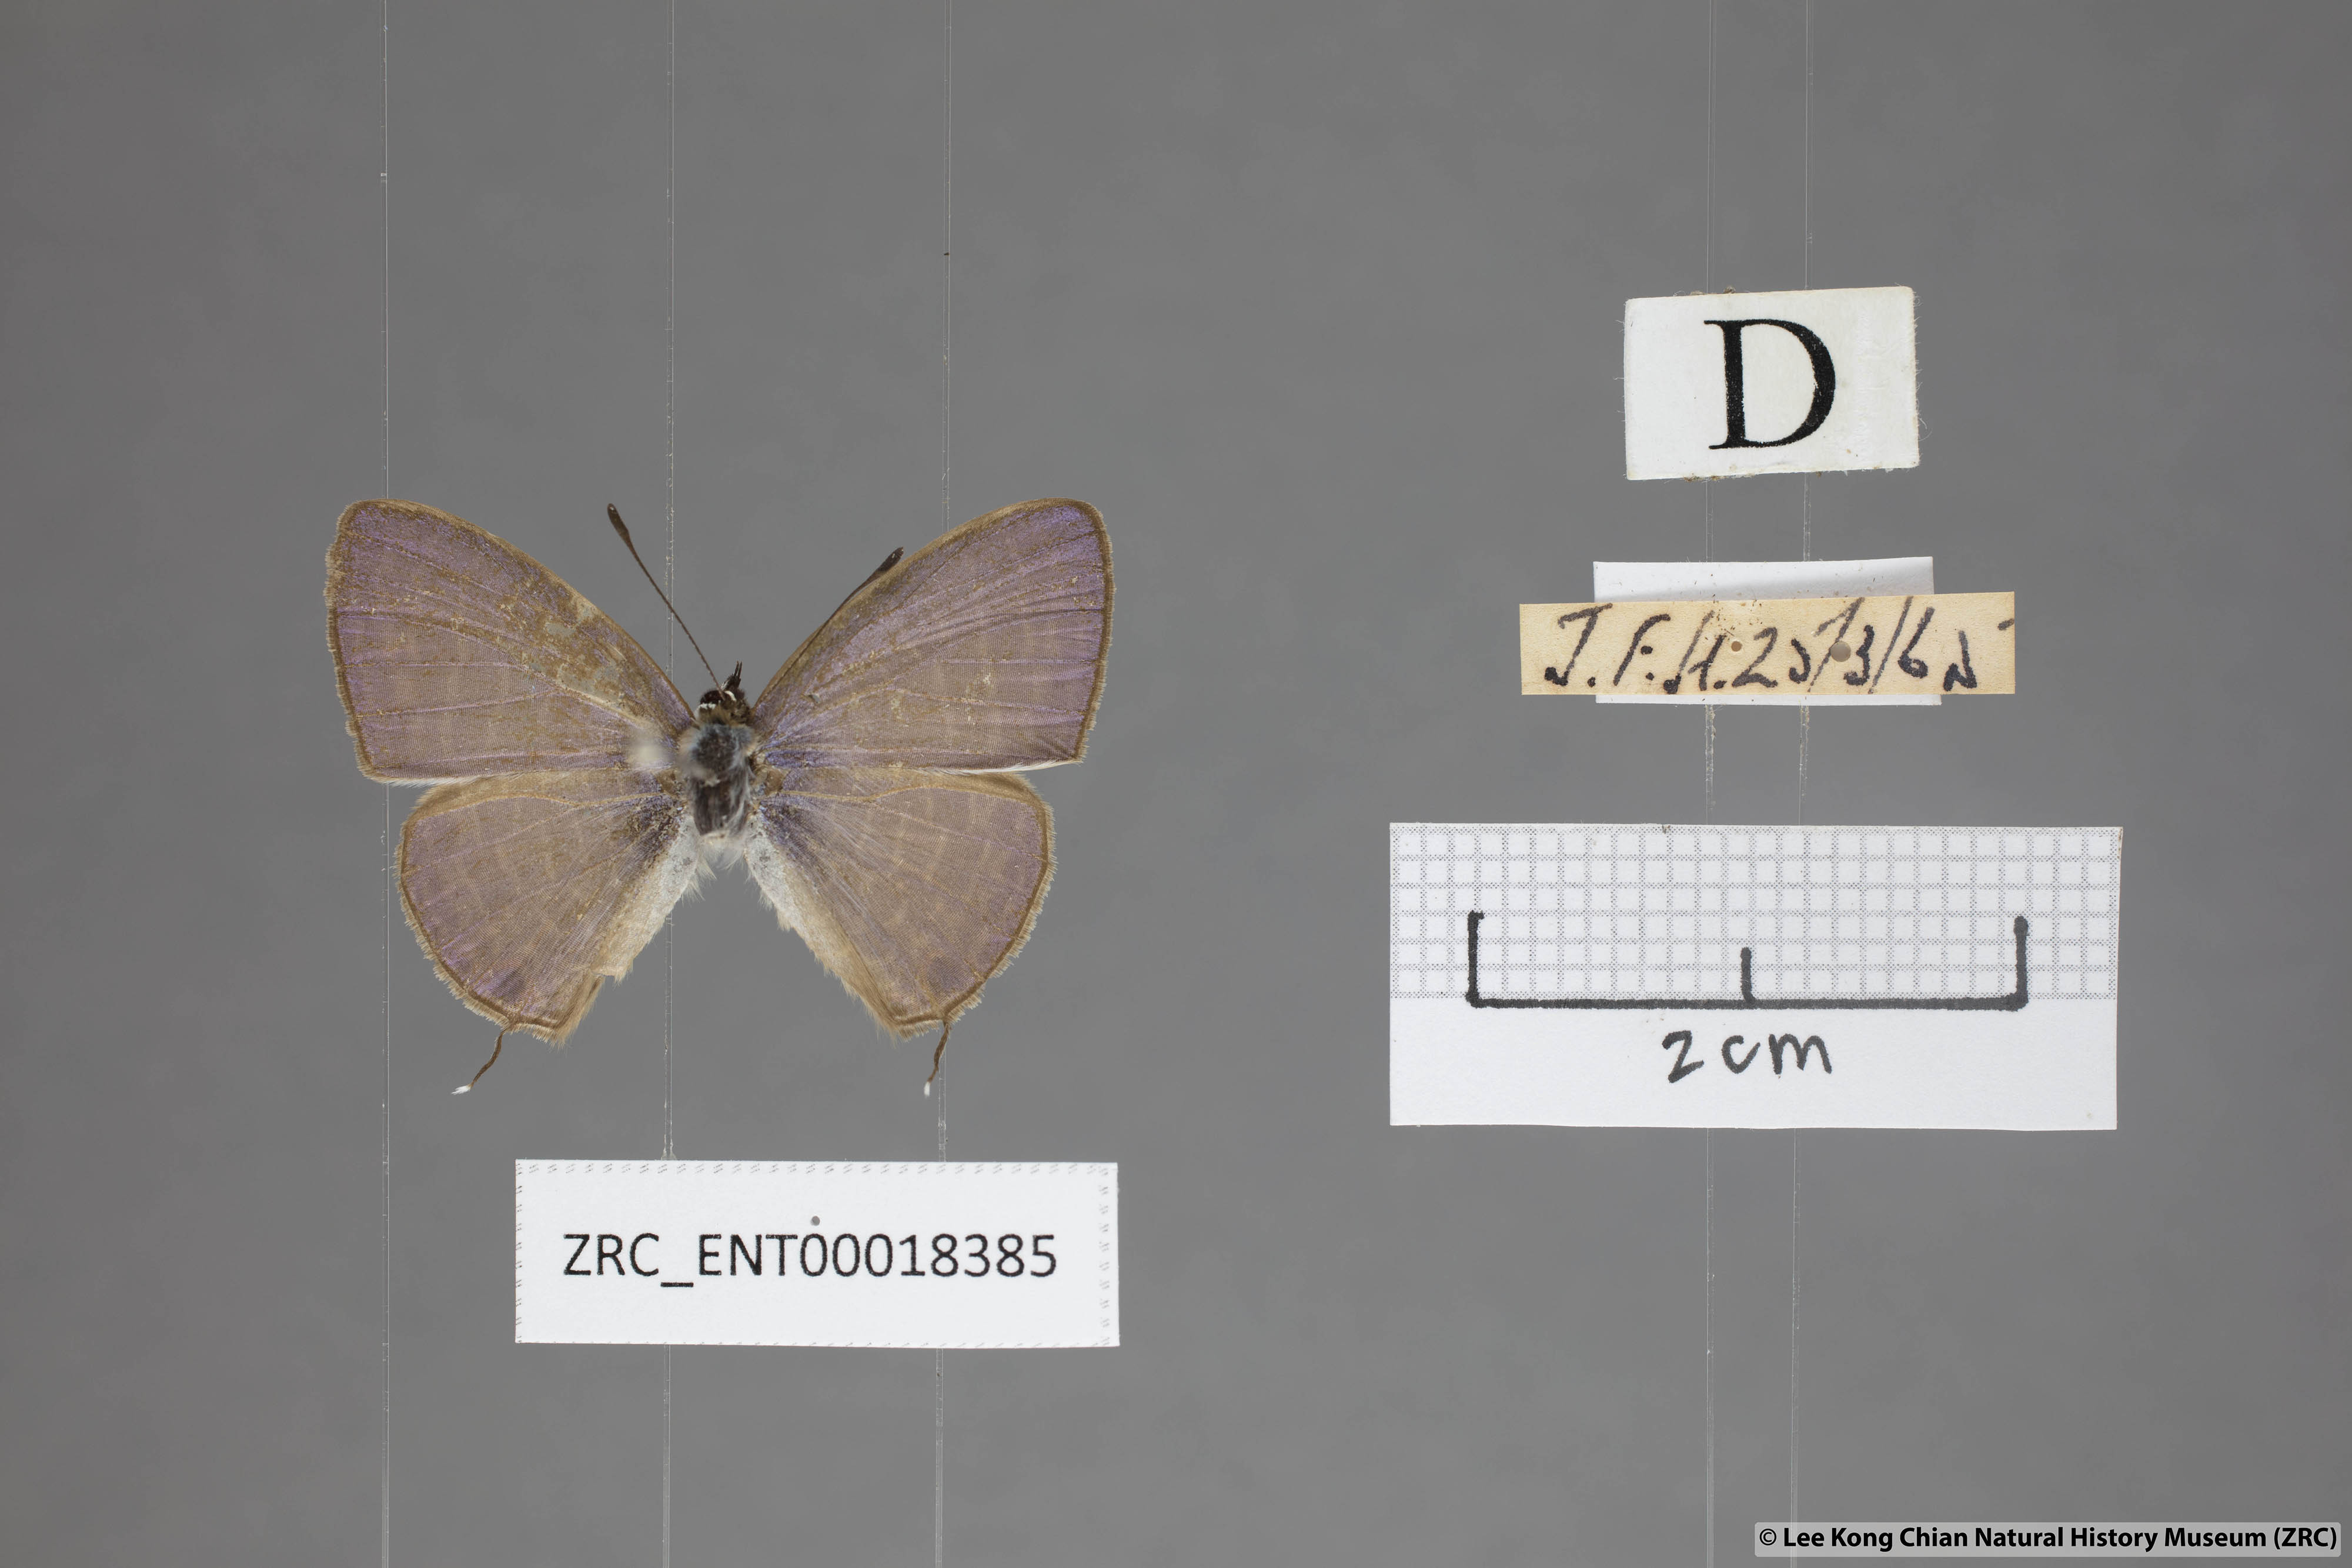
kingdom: Animalia
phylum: Arthropoda
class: Insecta
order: Lepidoptera
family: Lycaenidae
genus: Nacaduba
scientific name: Nacaduba kurava
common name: Transparent 6-line blue
